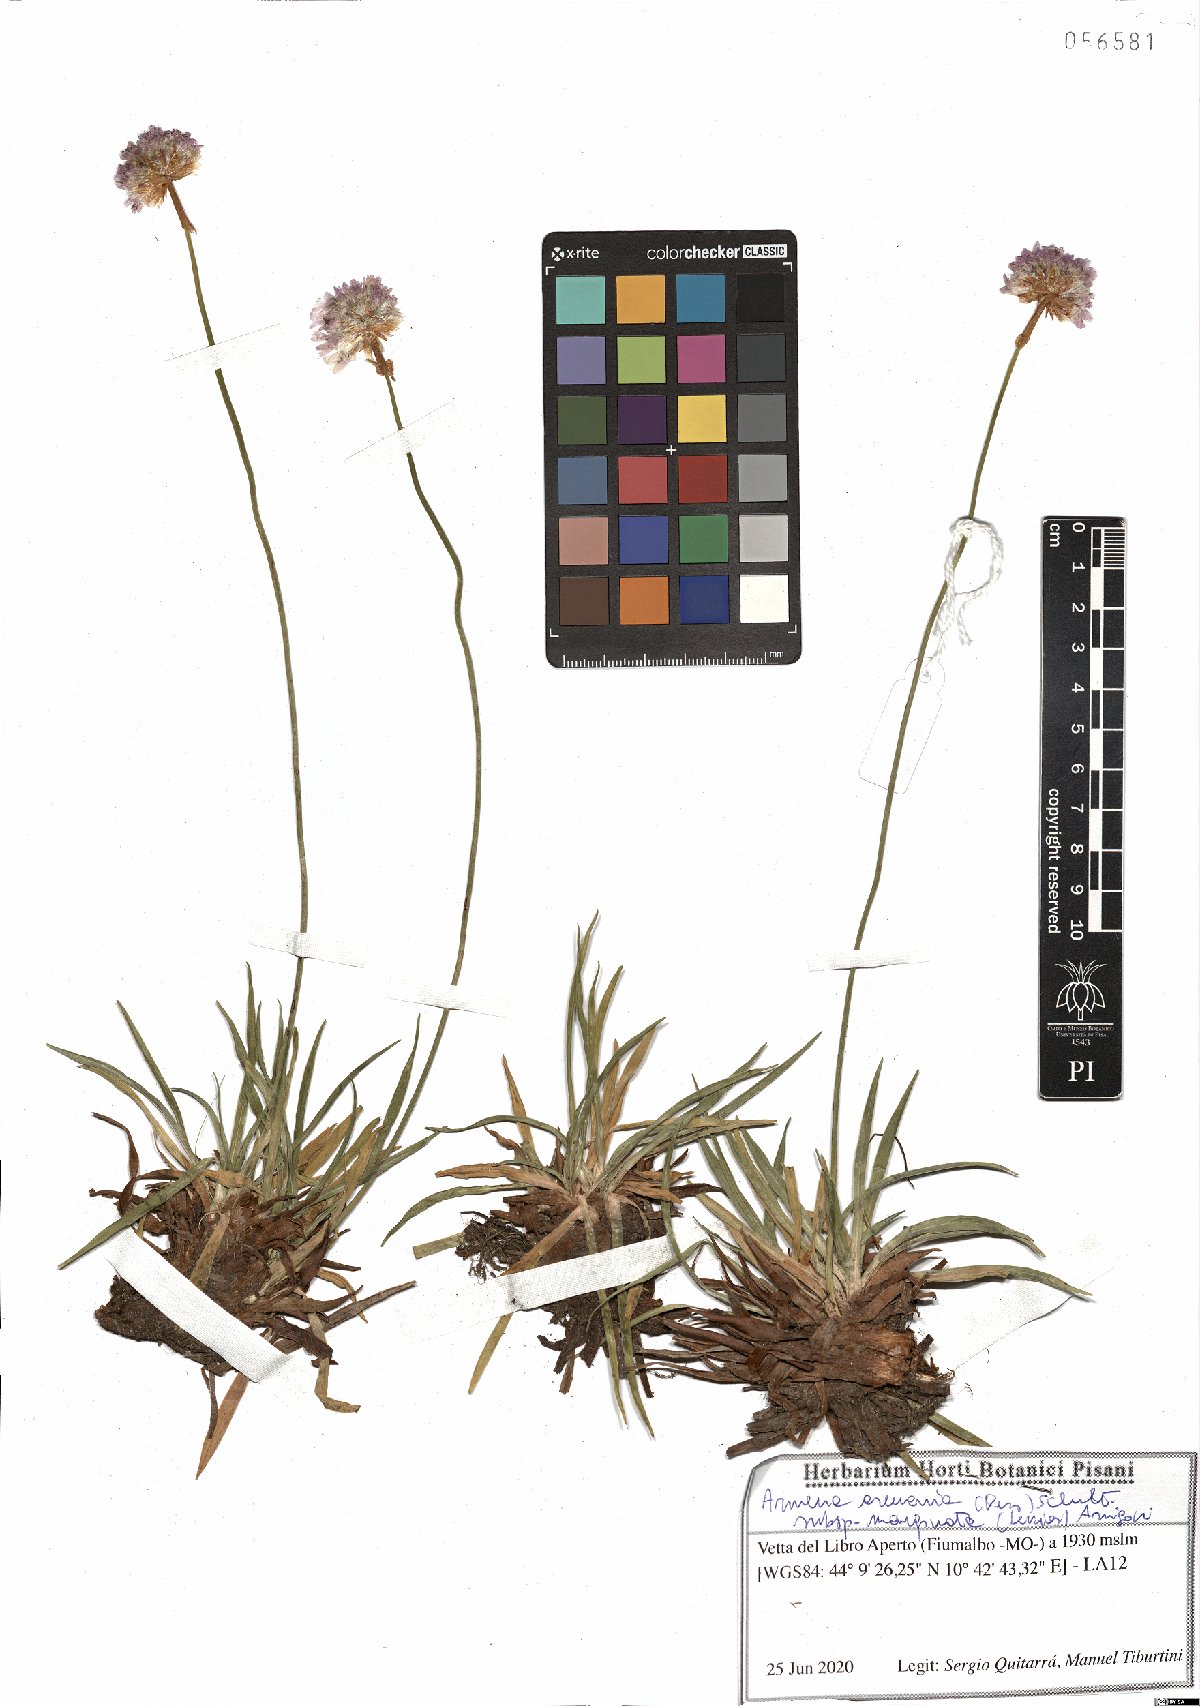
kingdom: Plantae
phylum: Tracheophyta
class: Magnoliopsida
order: Caryophyllales
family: Plumbaginaceae
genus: Armeria
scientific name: Armeria arenaria
